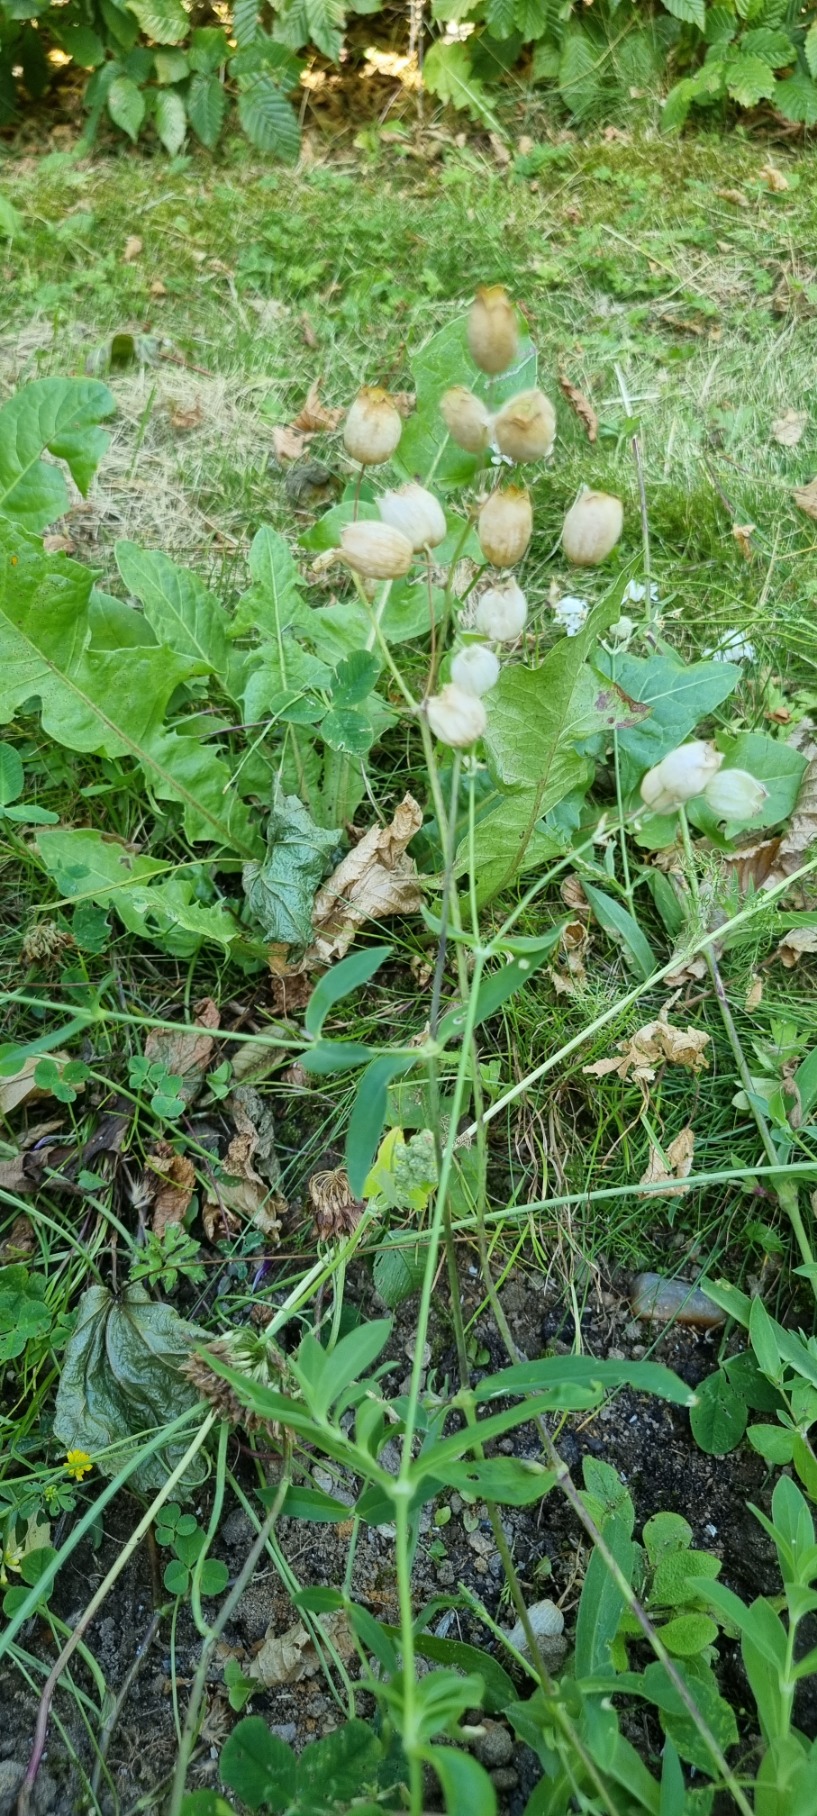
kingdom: Plantae
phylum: Tracheophyta
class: Magnoliopsida
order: Caryophyllales
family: Caryophyllaceae
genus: Silene
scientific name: Silene vulgaris
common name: Blæresmælde
